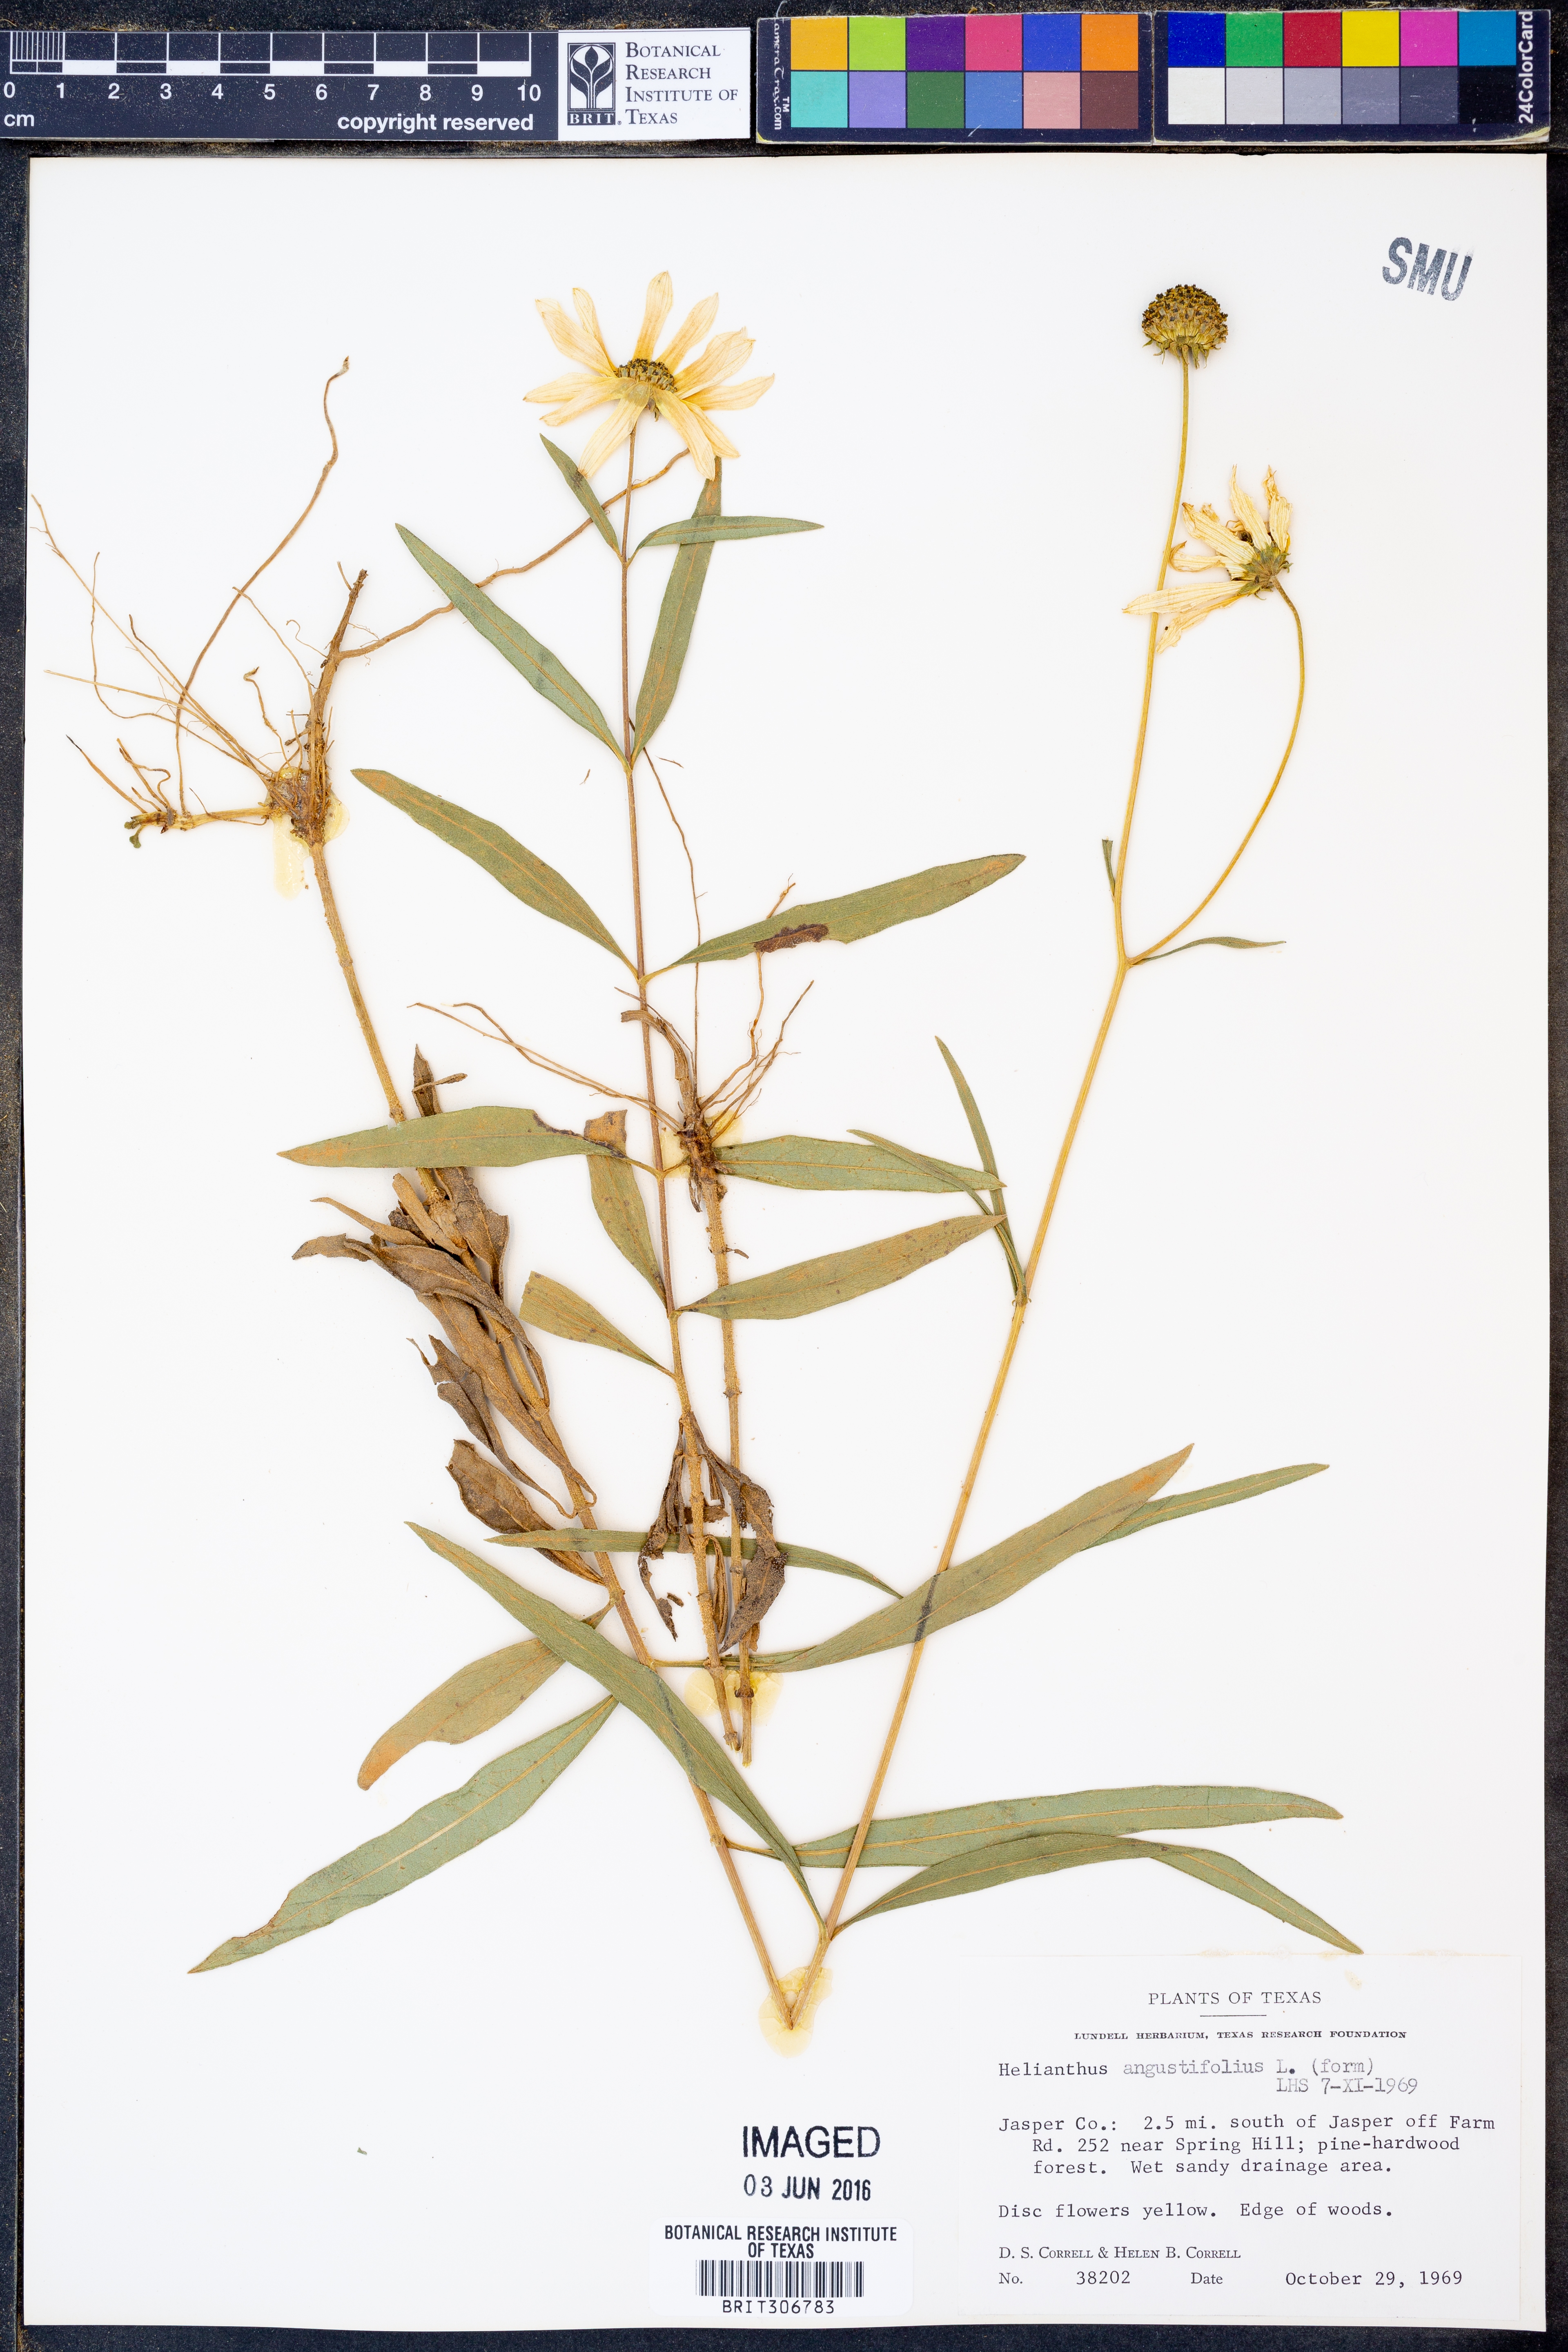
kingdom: Plantae
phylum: Tracheophyta
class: Magnoliopsida
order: Asterales
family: Asteraceae
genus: Helianthus
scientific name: Helianthus angustifolius
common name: Swamp sunflower
